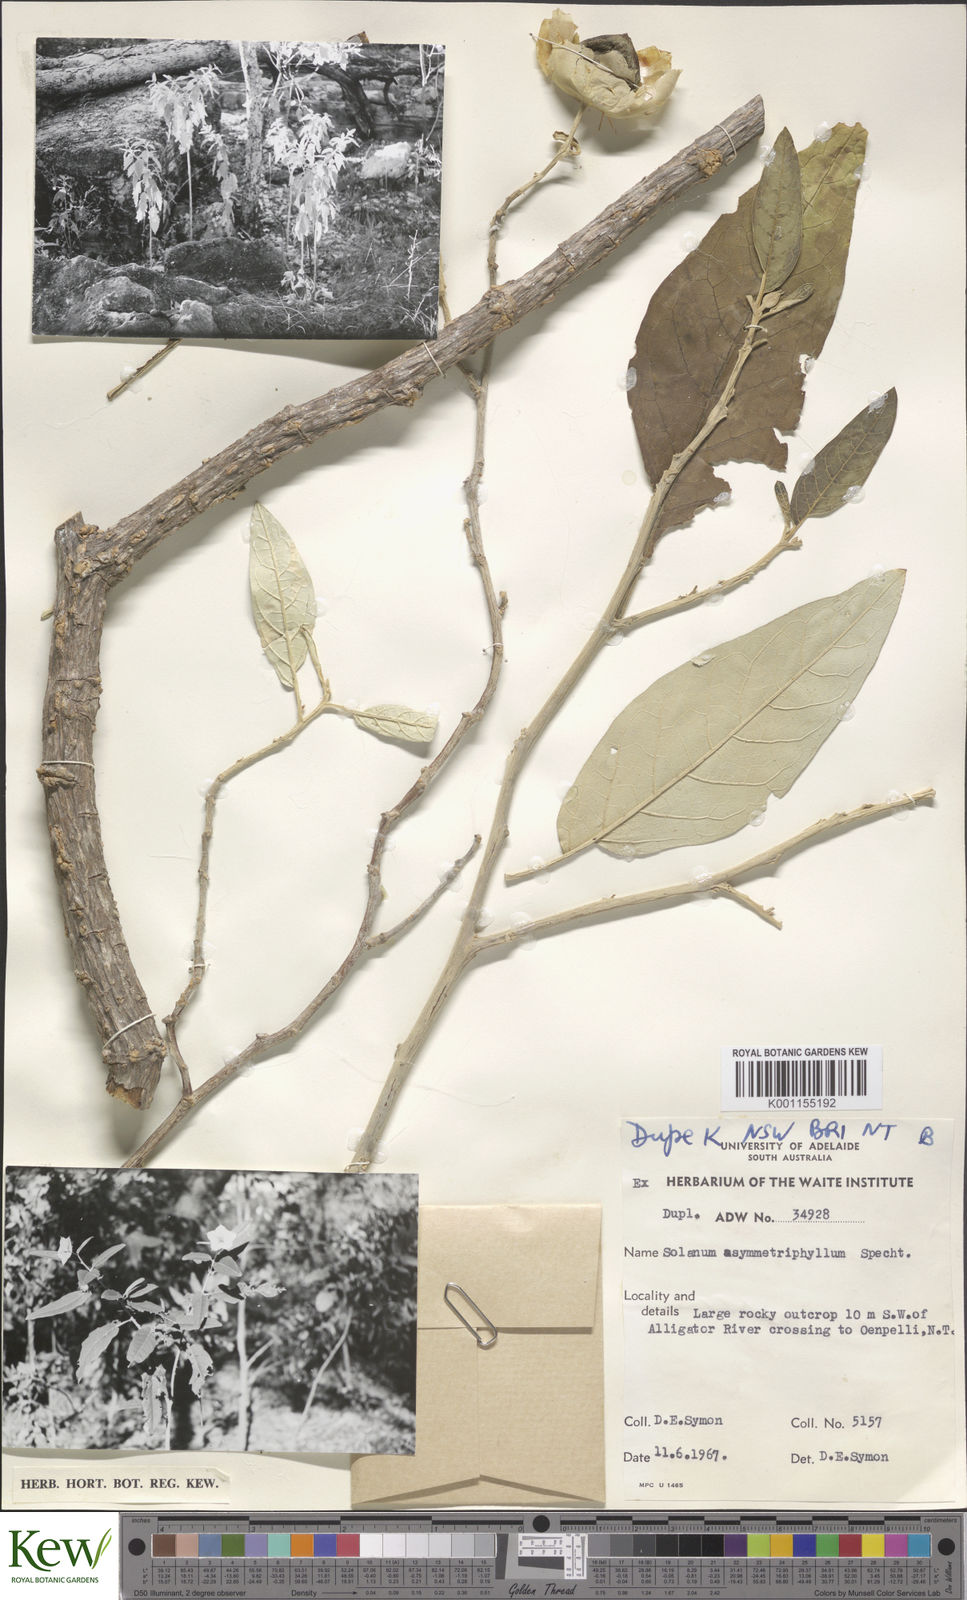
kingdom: Plantae
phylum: Tracheophyta
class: Magnoliopsida
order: Solanales
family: Solanaceae
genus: Solanum
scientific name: Solanum asymmetriphyllum
